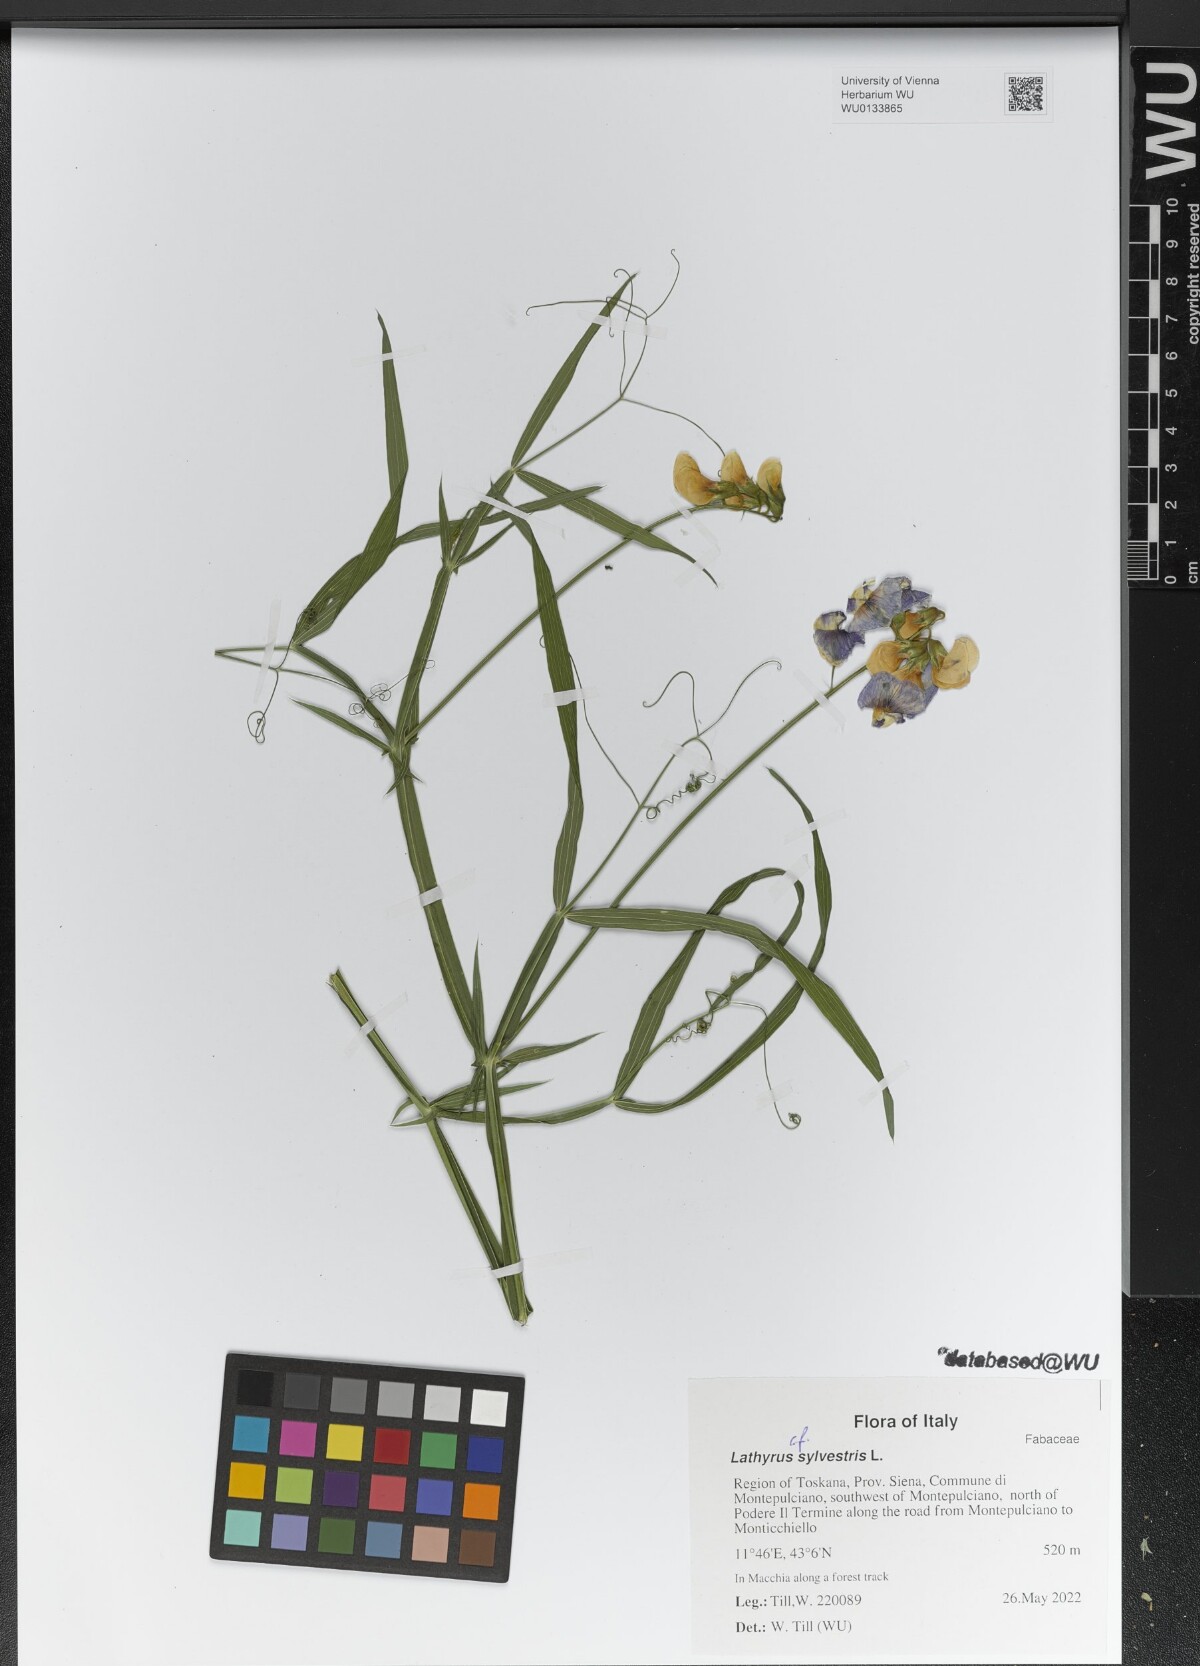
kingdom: Plantae
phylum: Tracheophyta
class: Magnoliopsida
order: Fabales
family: Fabaceae
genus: Lathyrus
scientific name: Lathyrus sylvestris
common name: Flat pea
